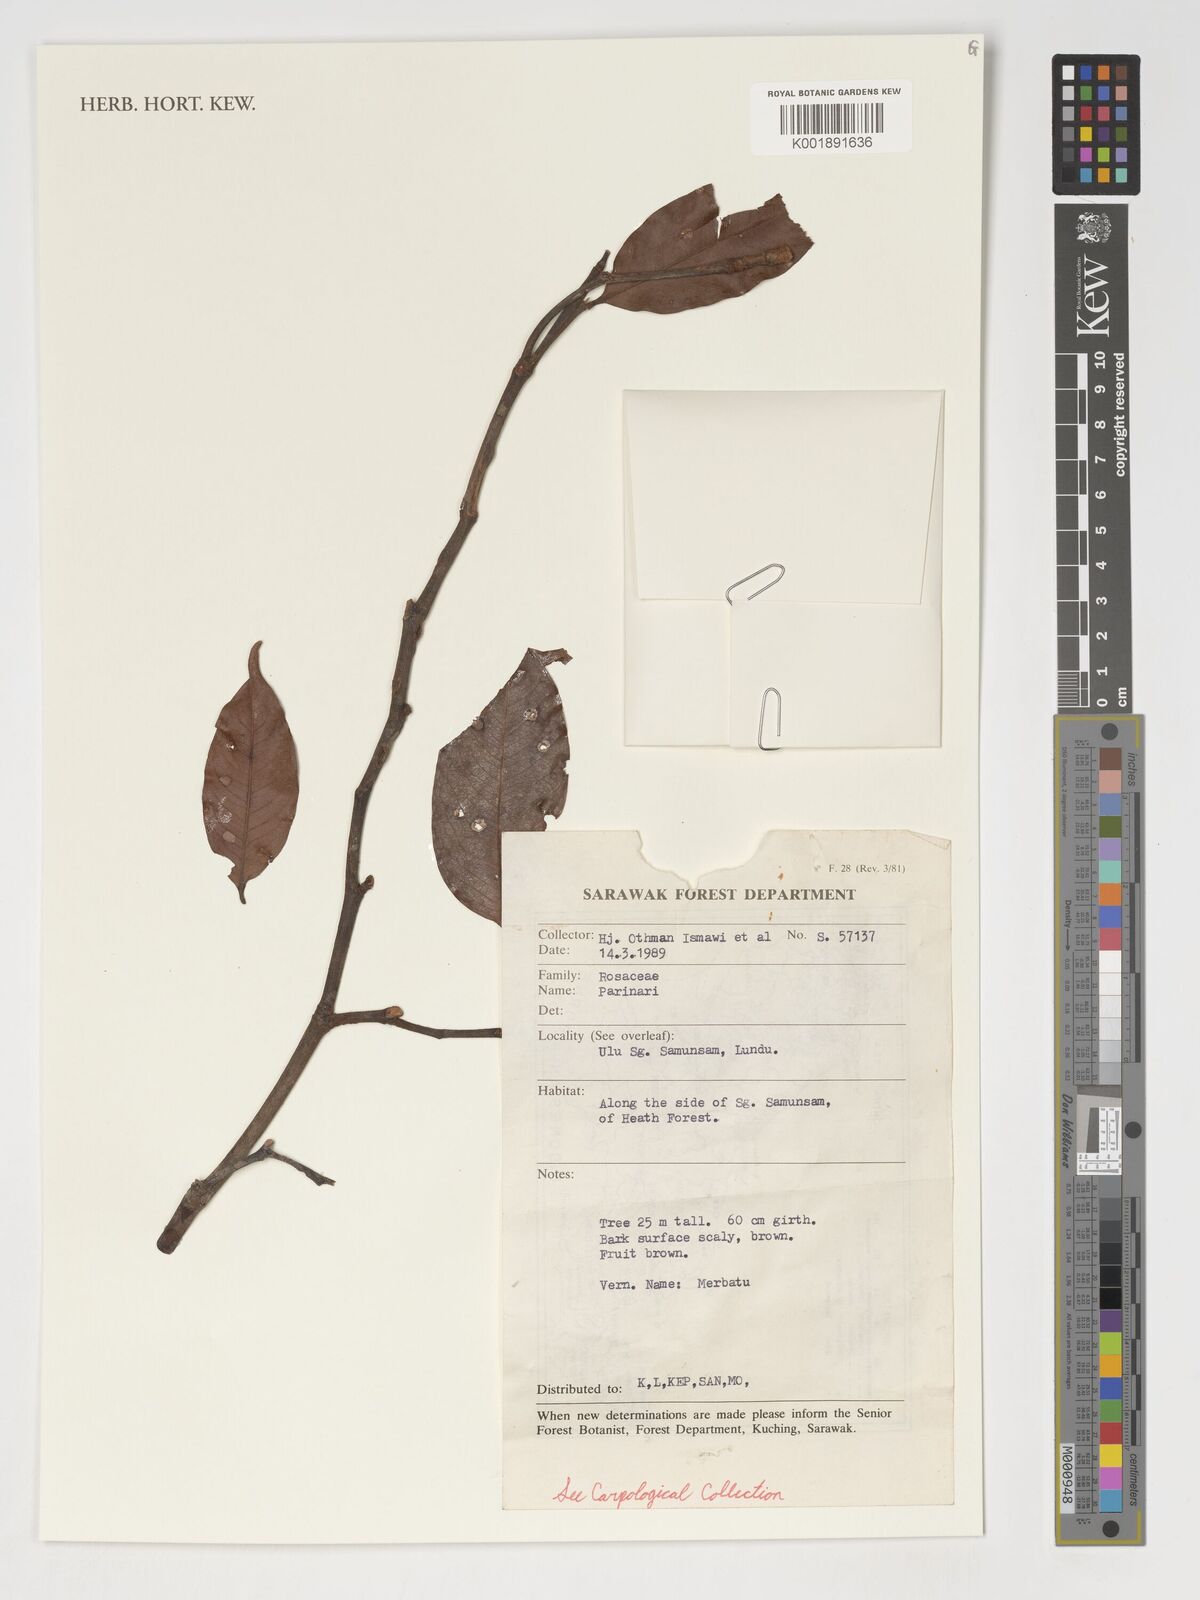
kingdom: Plantae
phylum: Tracheophyta
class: Magnoliopsida
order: Malpighiales
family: Chrysobalanaceae
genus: Parinari
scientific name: Parinari
